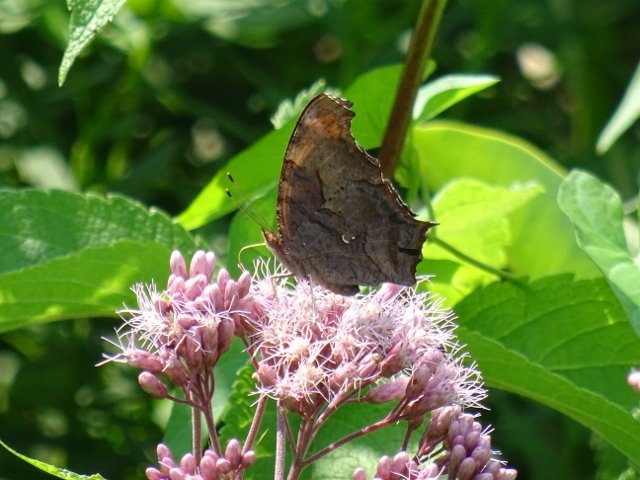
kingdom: Animalia
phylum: Arthropoda
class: Insecta
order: Lepidoptera
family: Nymphalidae
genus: Polygonia
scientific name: Polygonia interrogationis
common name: Question Mark
